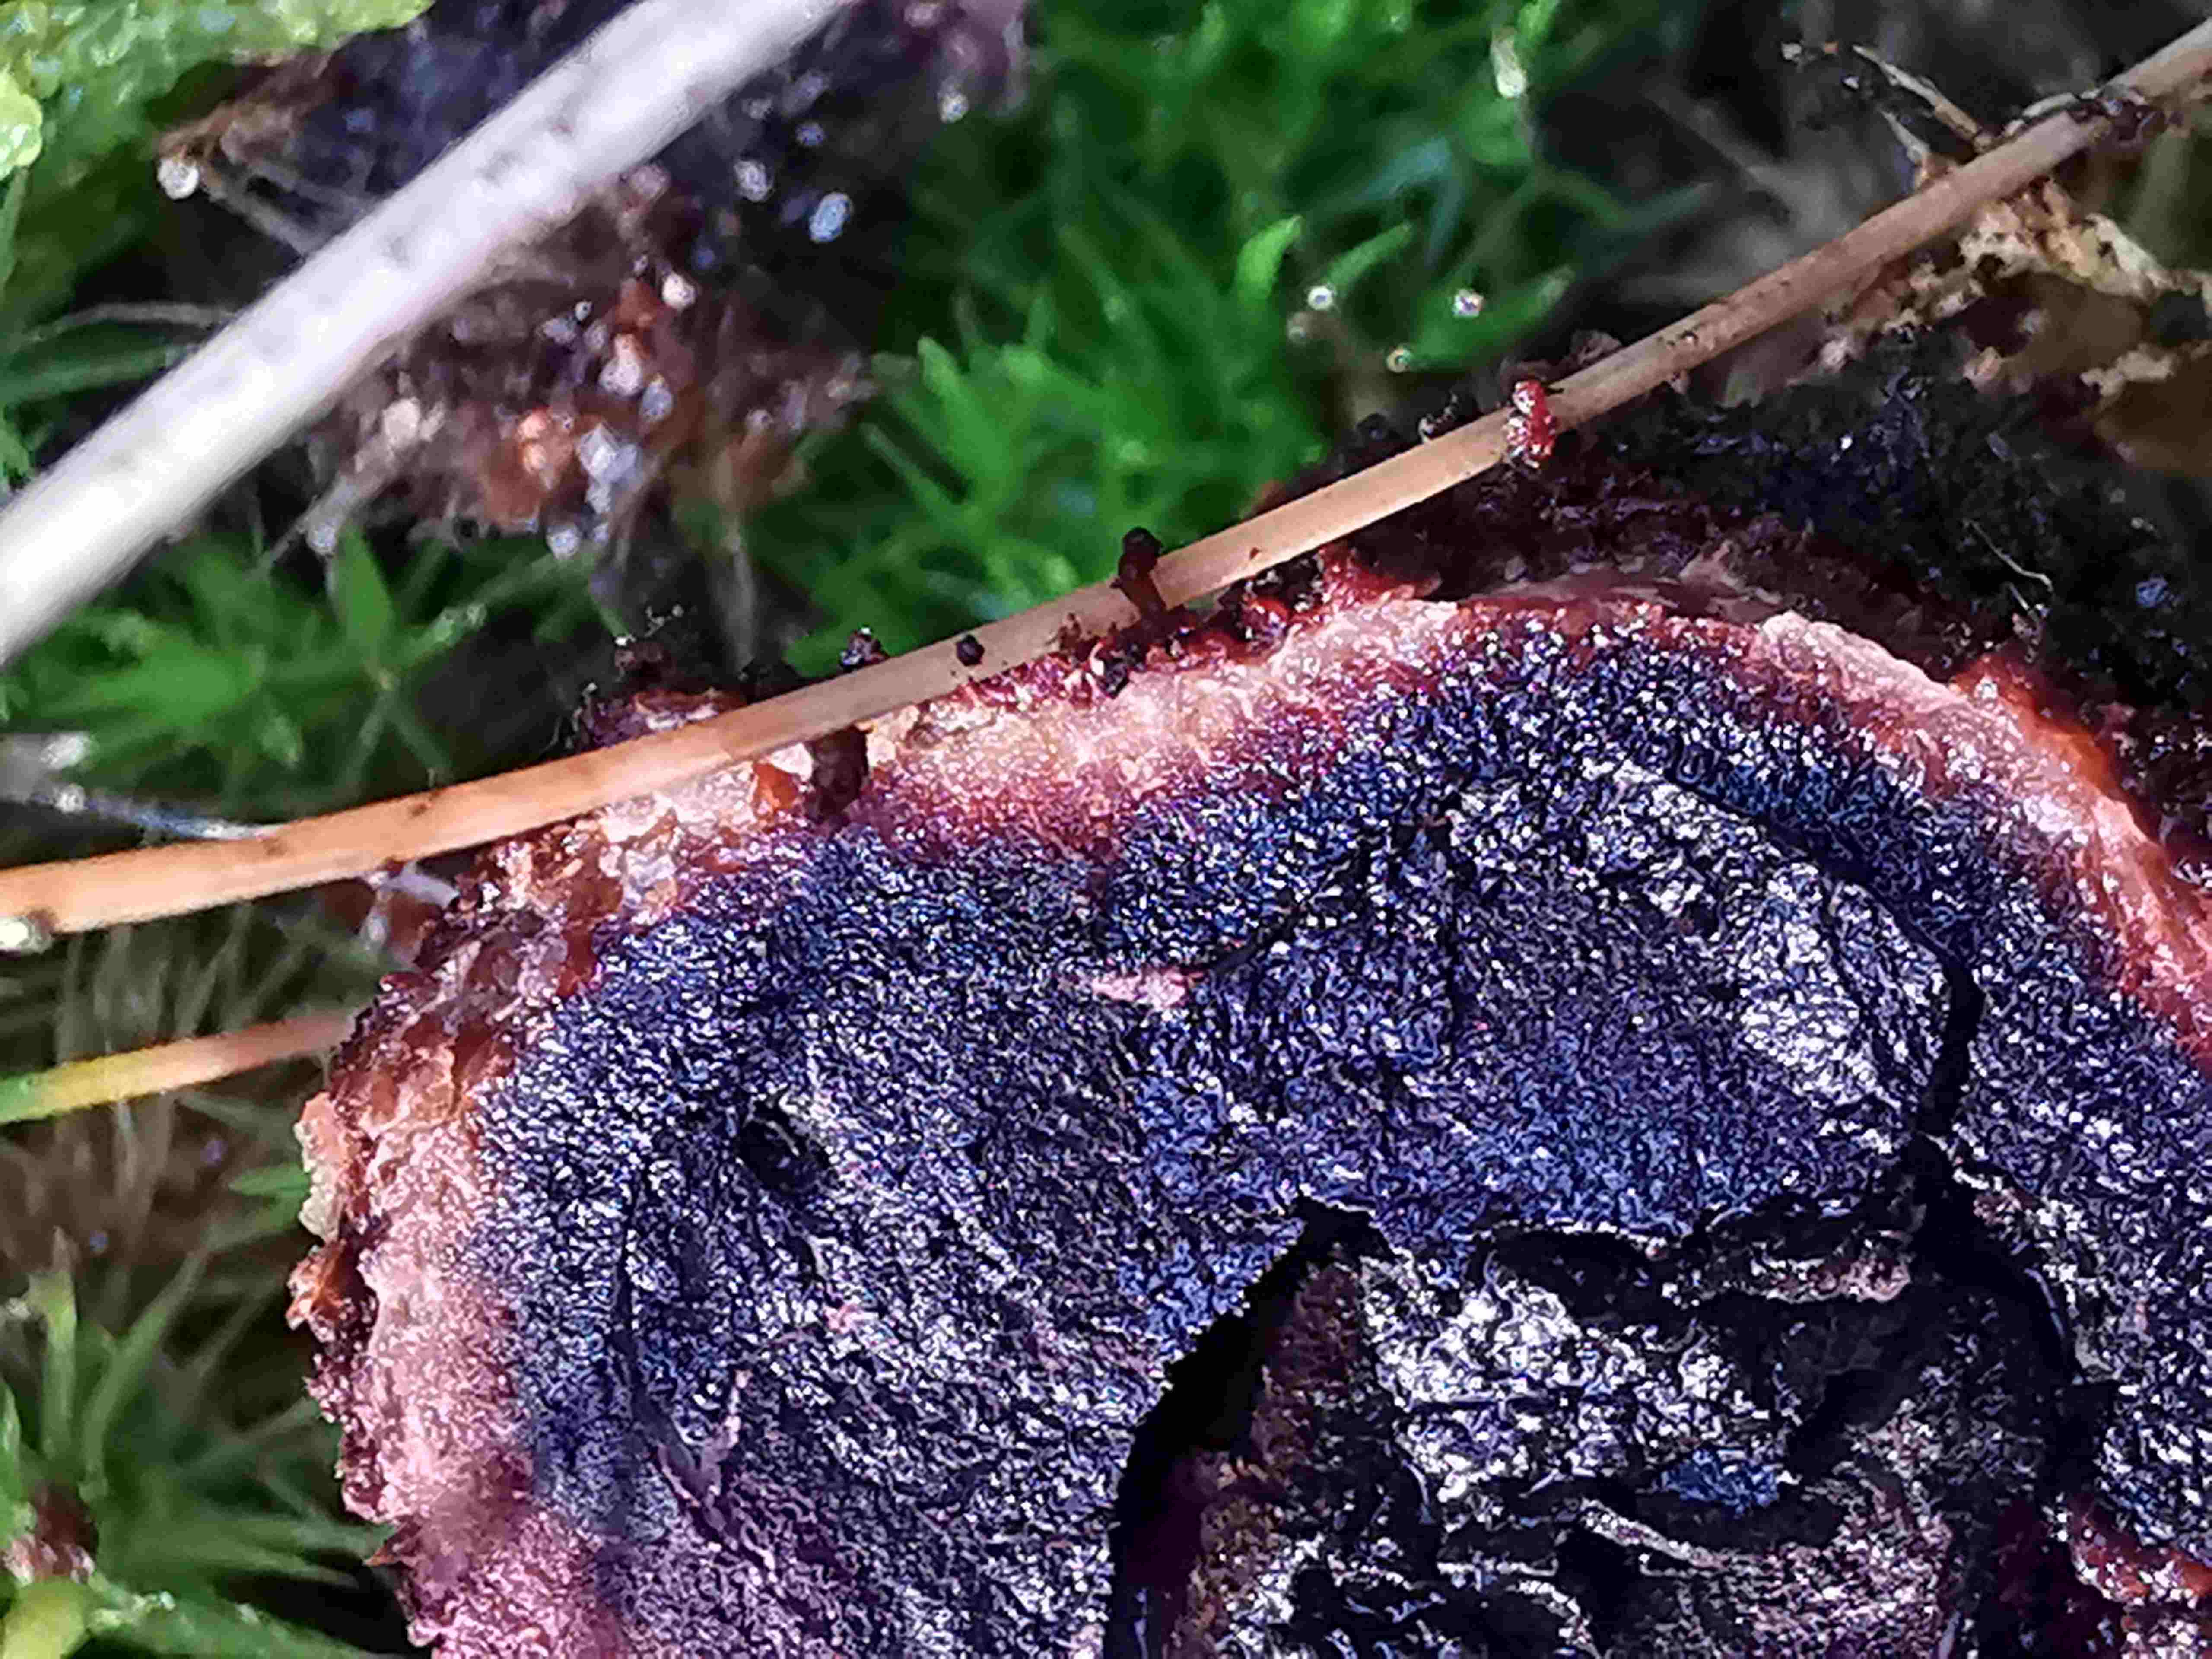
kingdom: Fungi
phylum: Ascomycota
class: Eurotiomycetes
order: Eurotiales
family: Elaphomycetaceae
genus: Elaphomyces
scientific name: Elaphomyces muricatus
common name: vortet hjortetrøffel
